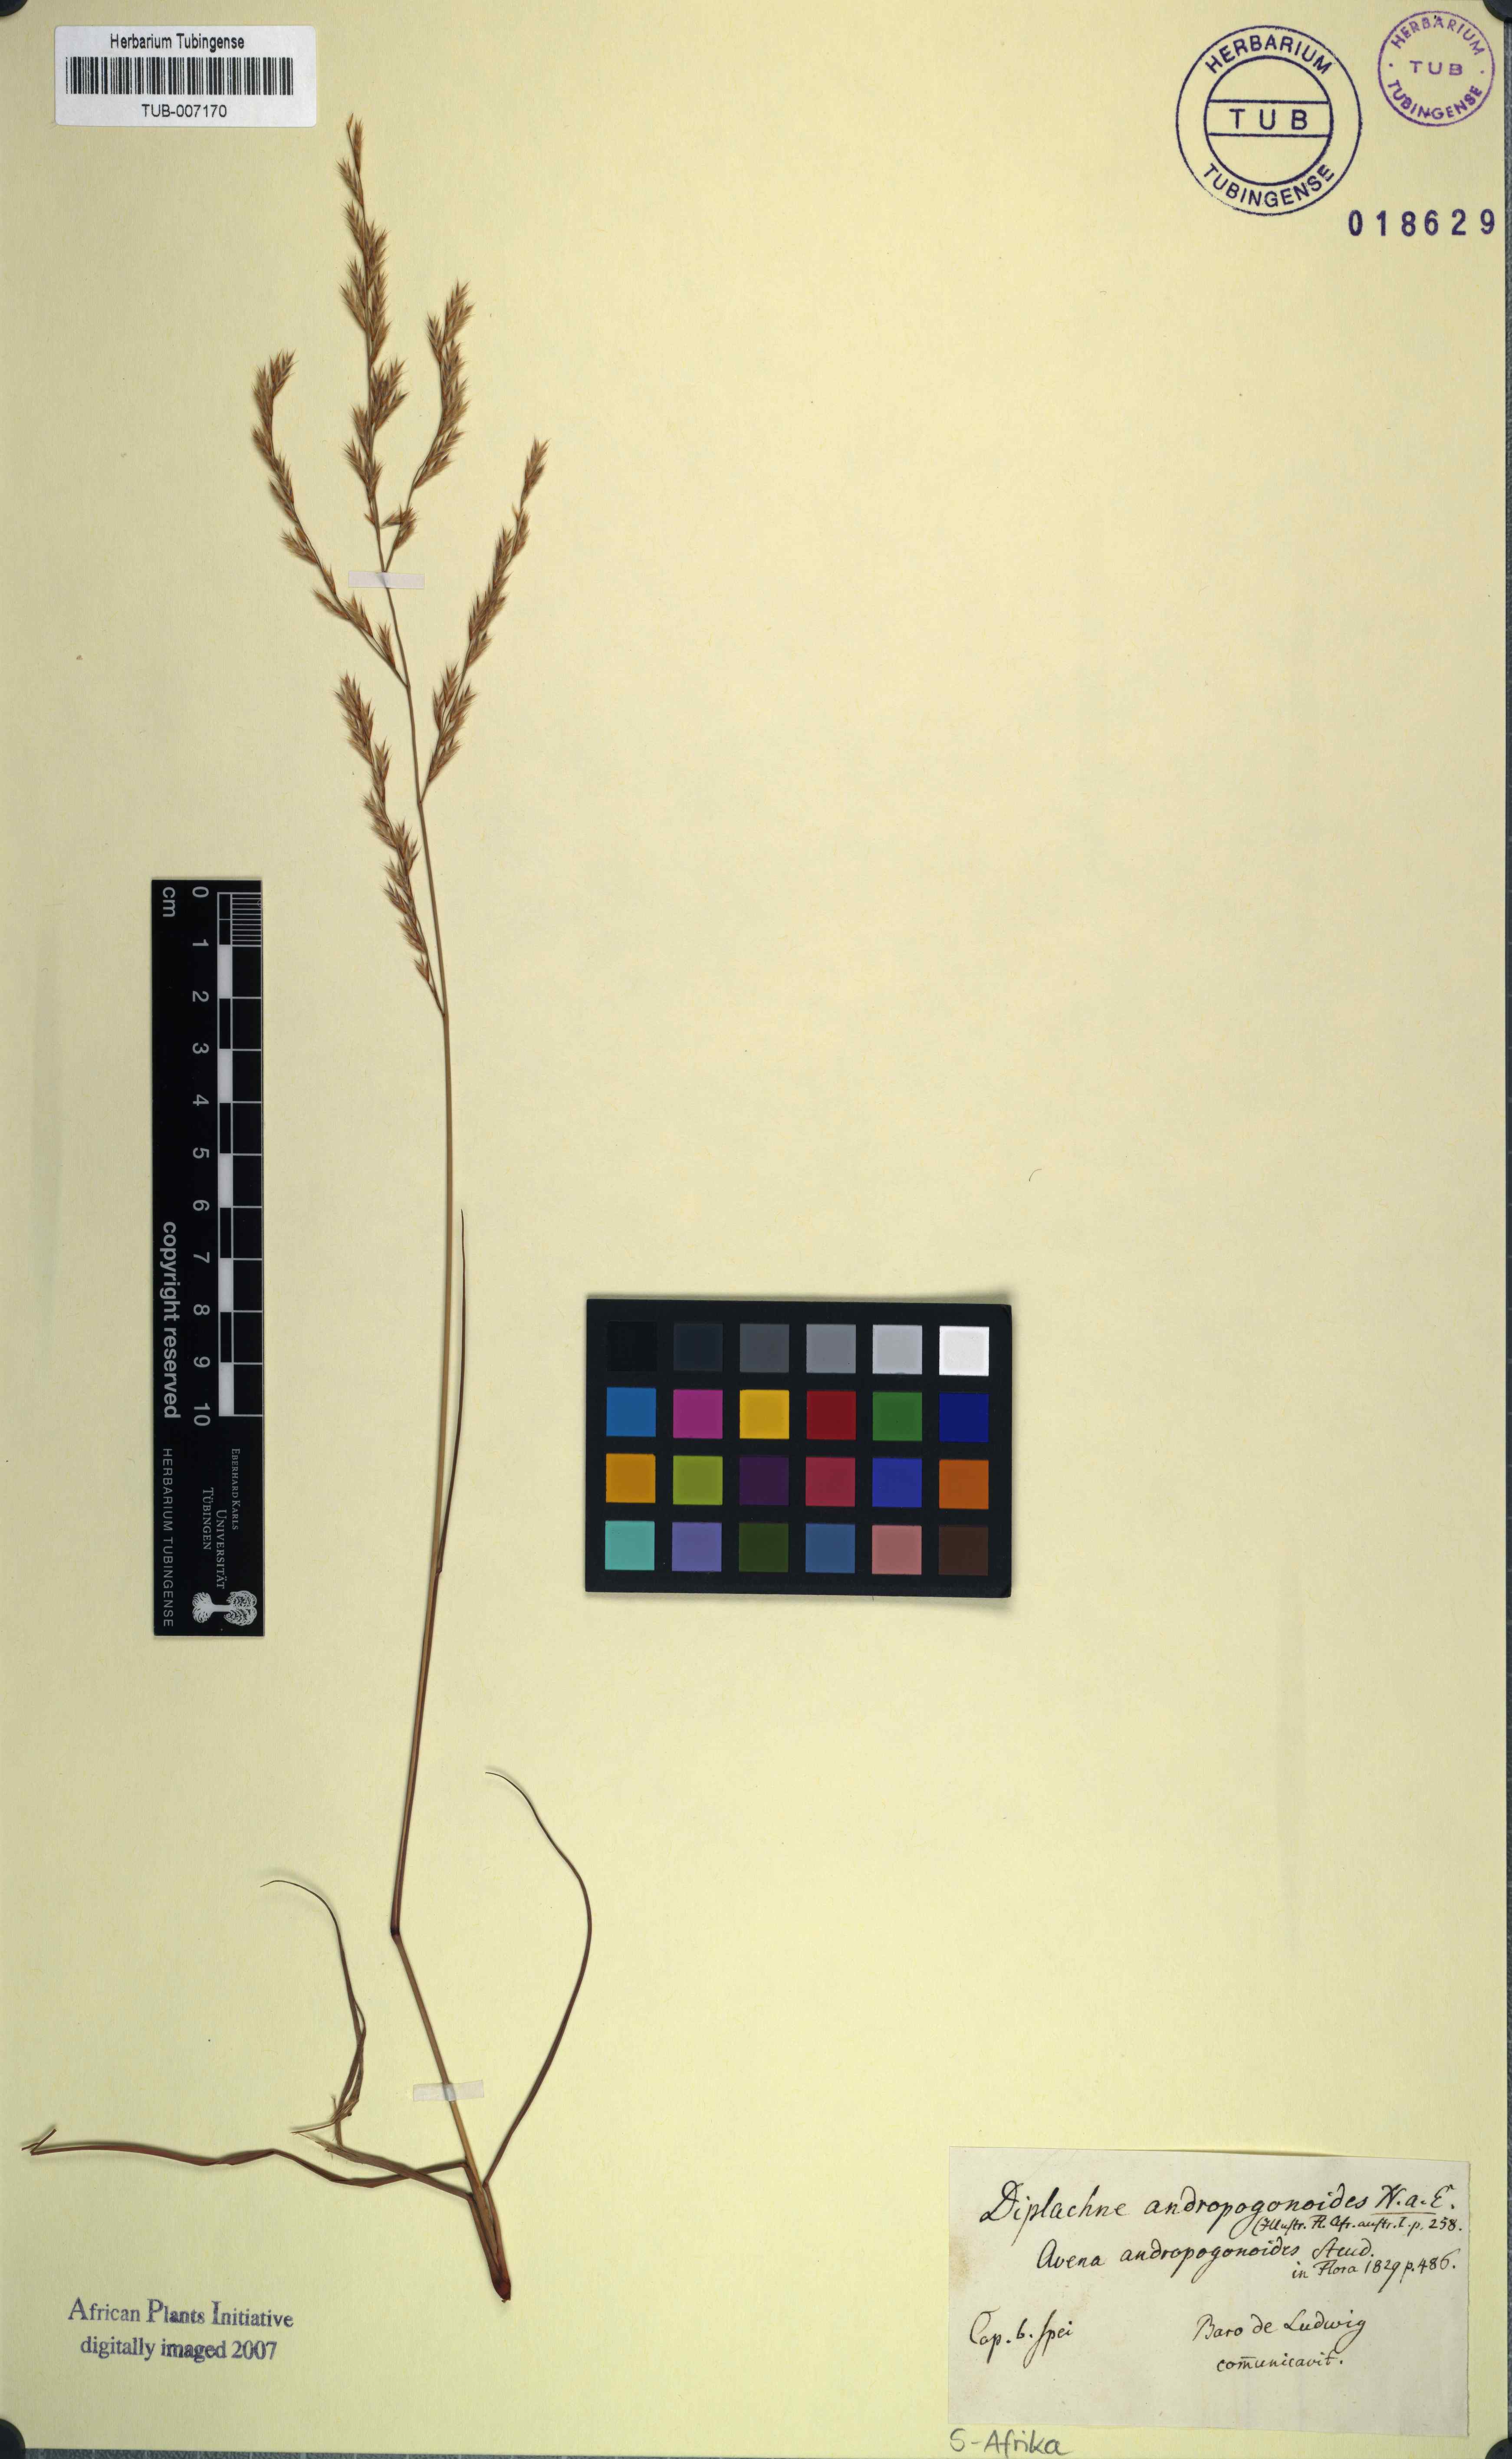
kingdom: Plantae
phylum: Tracheophyta
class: Liliopsida
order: Poales
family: Poaceae
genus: Triraphis
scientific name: Triraphis andropogonoides
